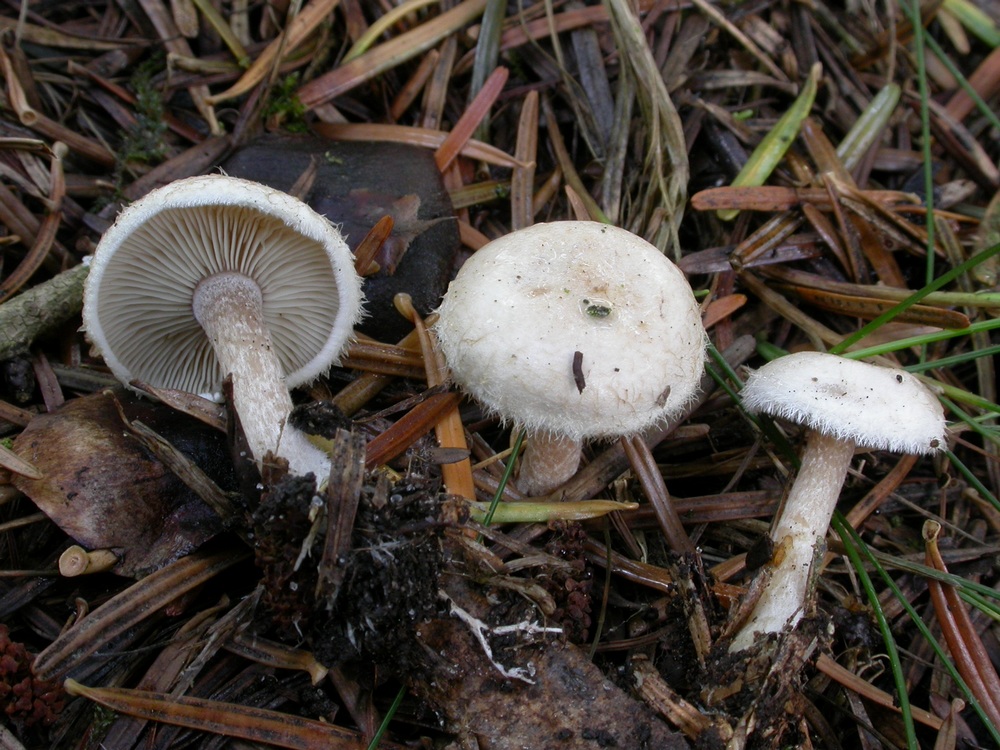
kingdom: Fungi
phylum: Basidiomycota
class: Agaricomycetes
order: Agaricales
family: Tricholomataceae
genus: Ripartites
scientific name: Ripartites tricholoma
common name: almindelig skæghat
